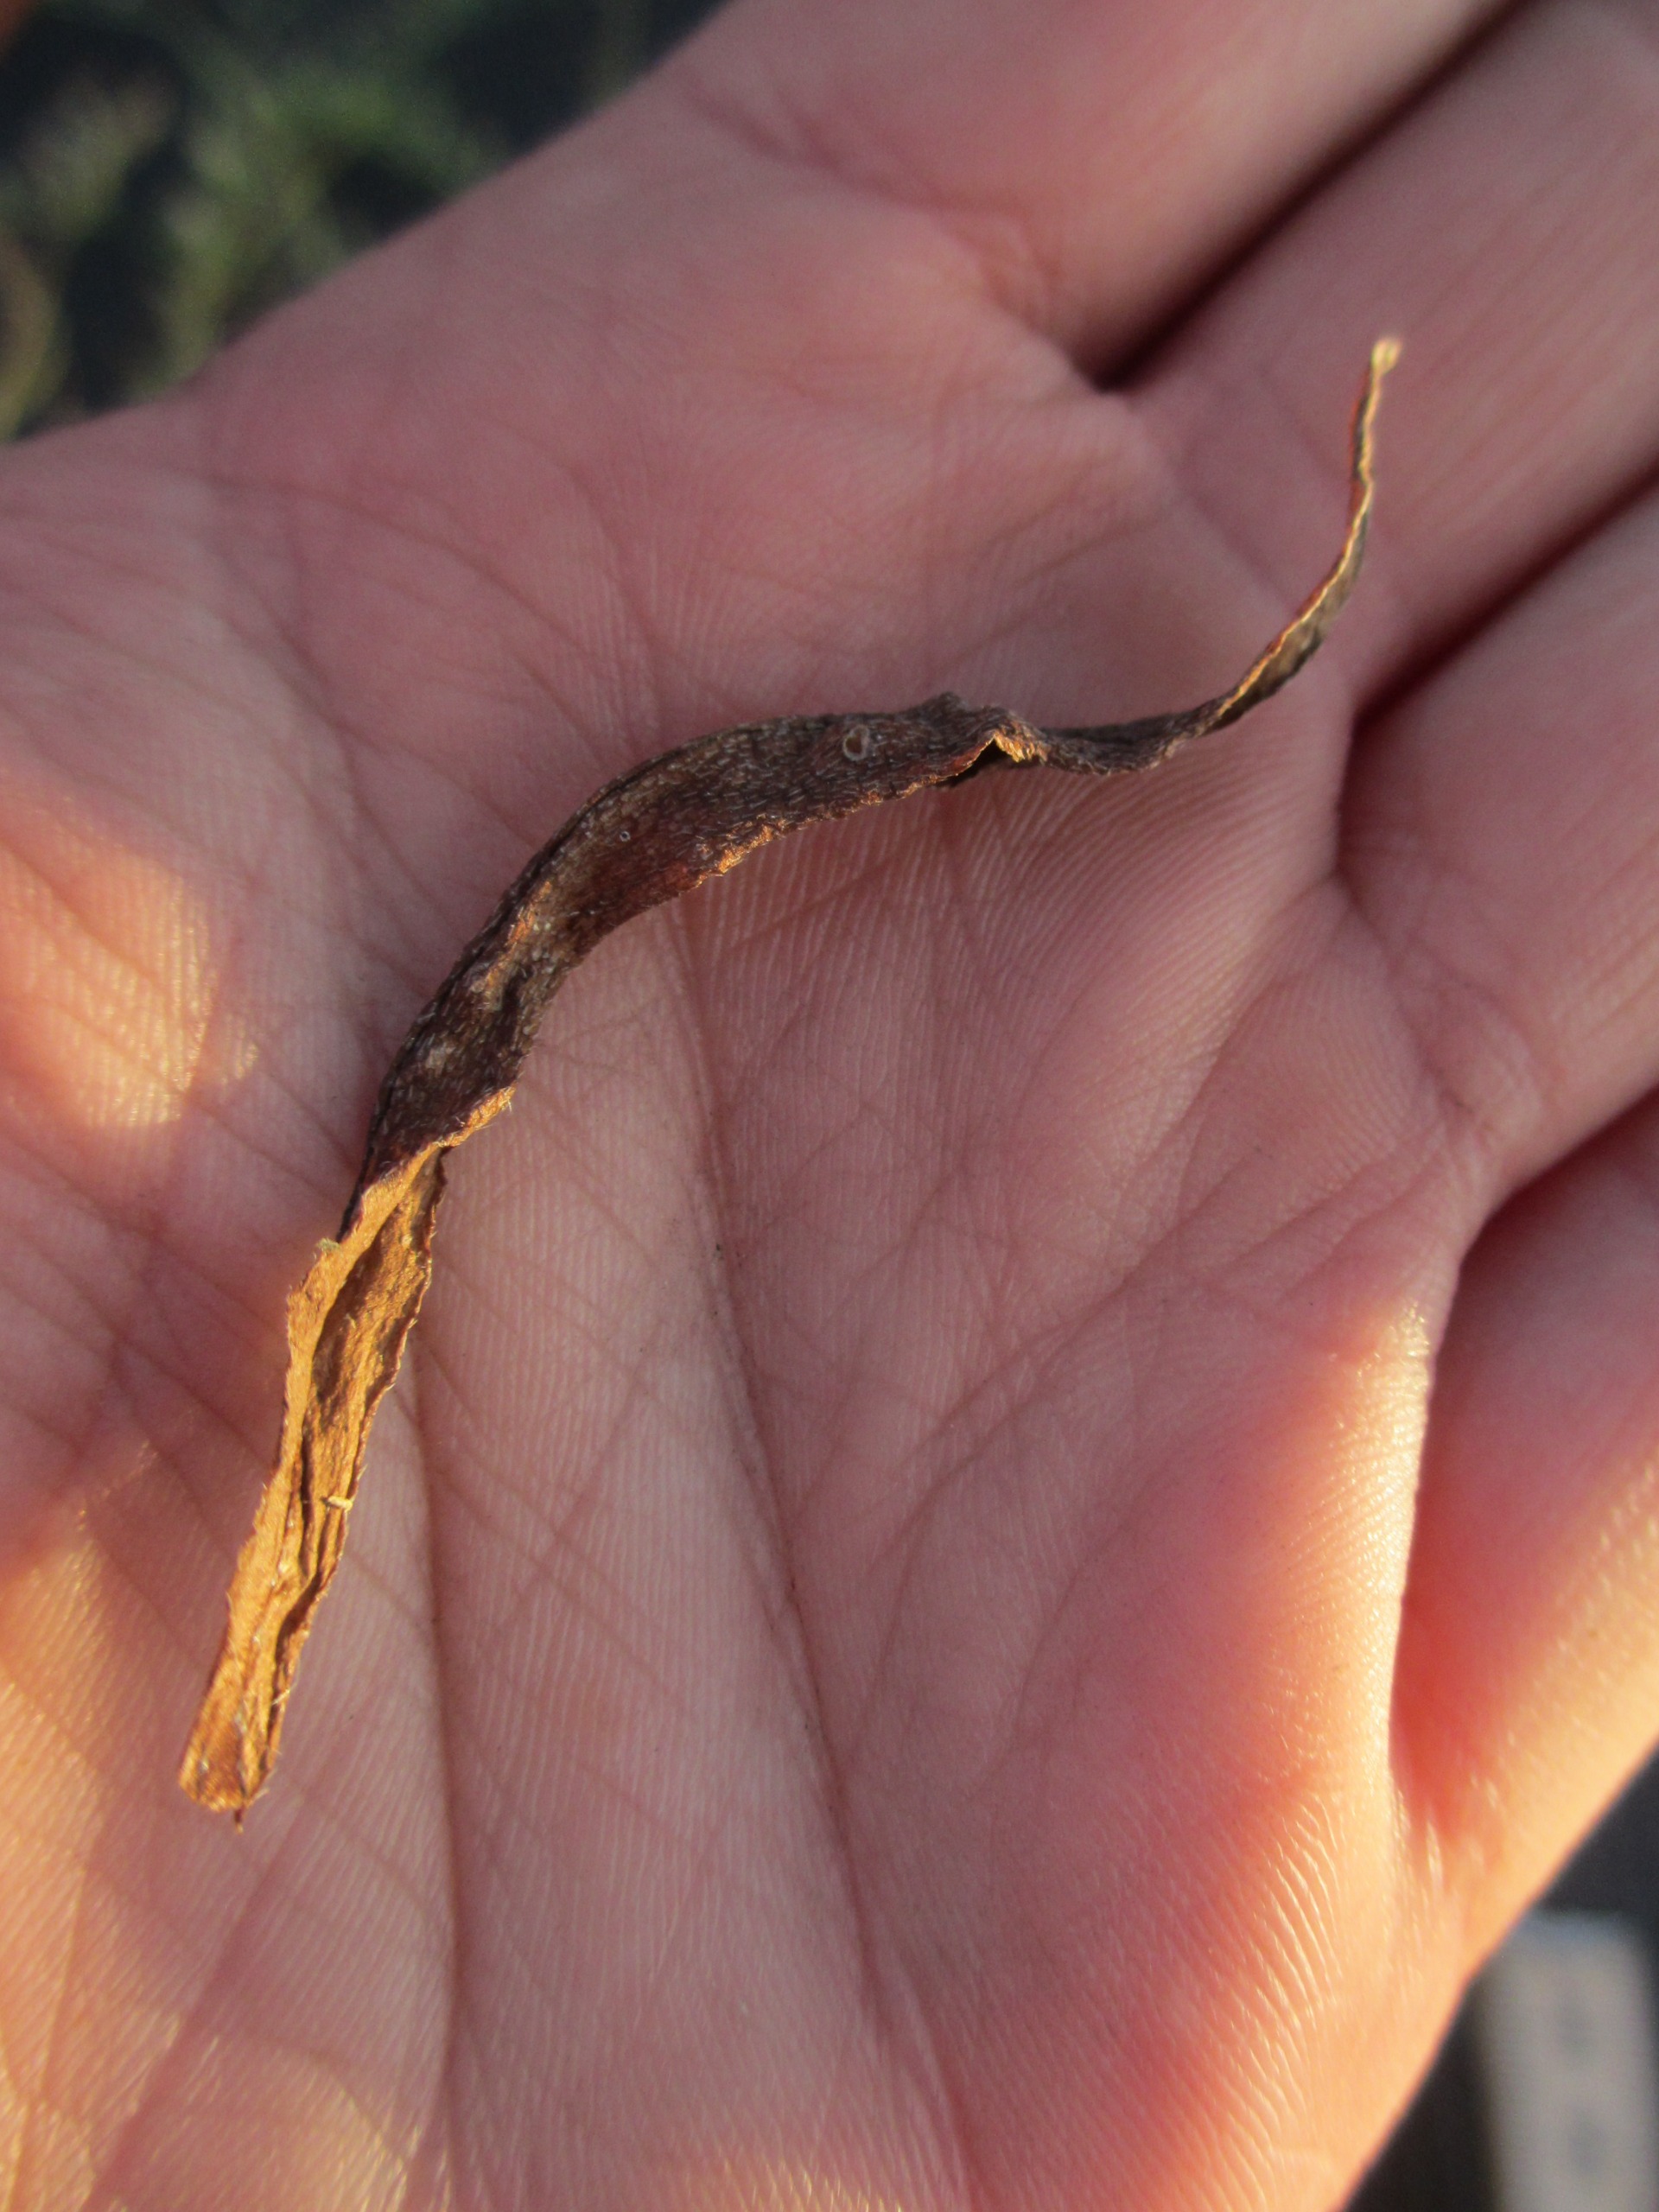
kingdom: Plantae
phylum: Tracheophyta
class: Magnoliopsida
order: Boraginales
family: Boraginaceae
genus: Myosotis
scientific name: Myosotis laxa
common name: Sump-forglemmigej
